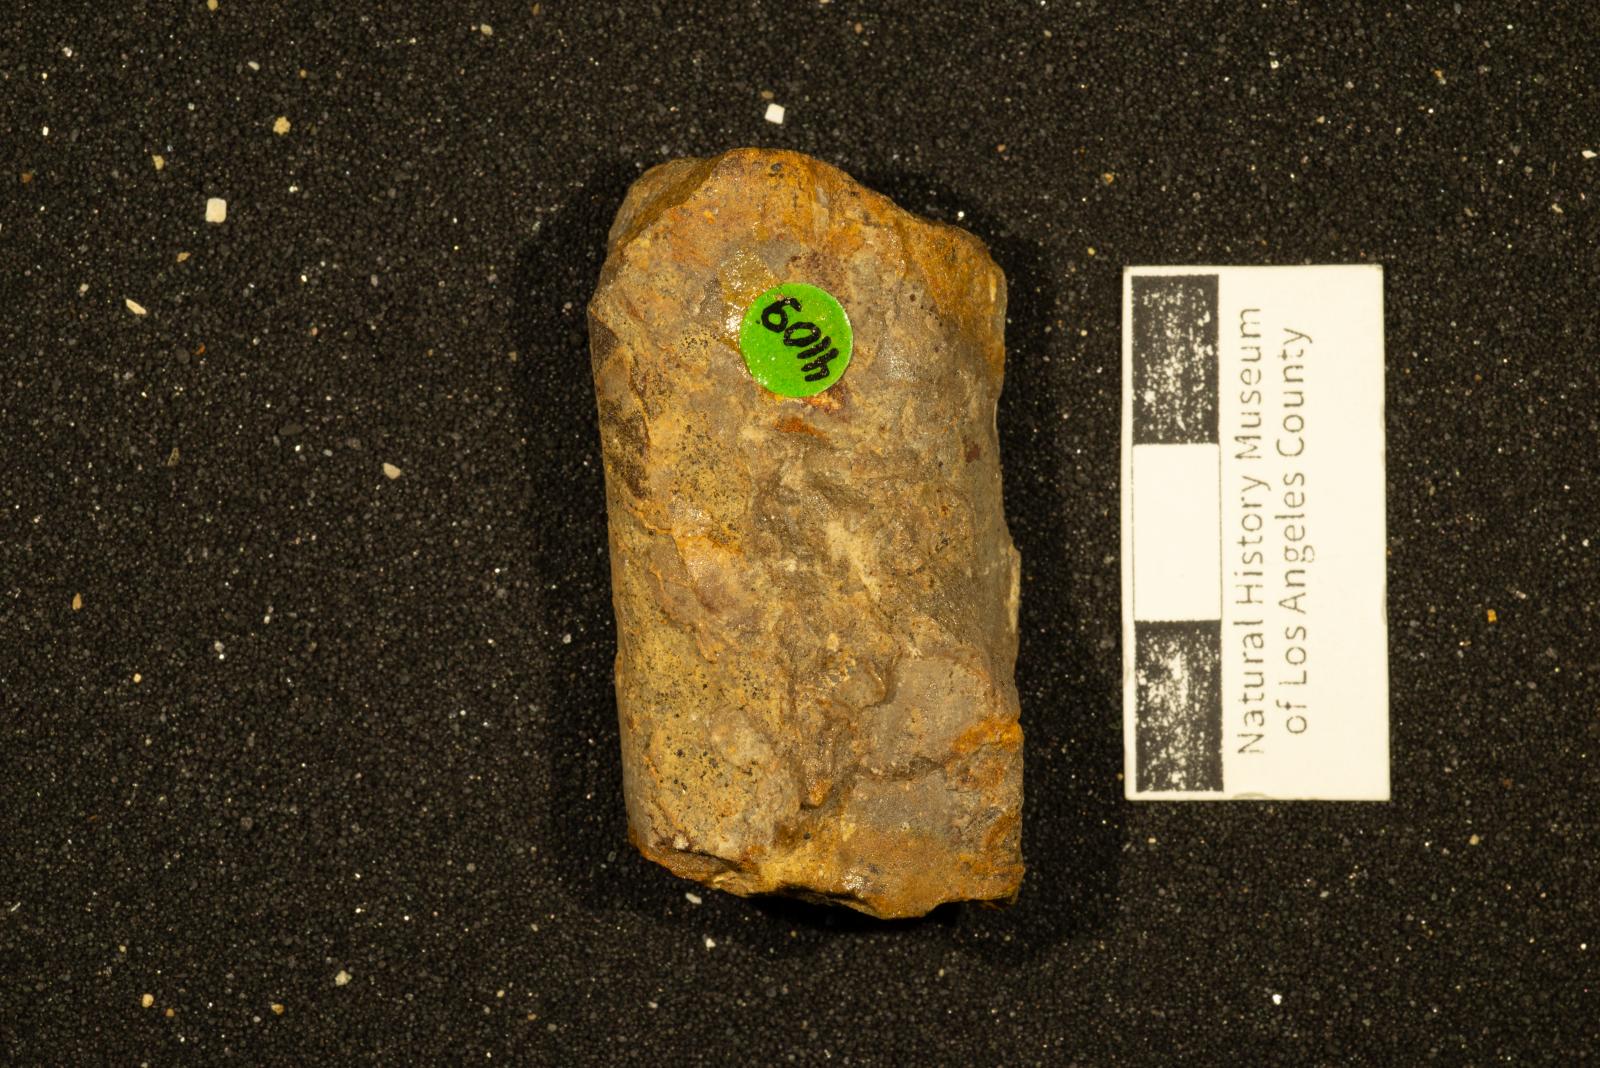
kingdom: Animalia
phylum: Mollusca
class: Cephalopoda
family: Baculitidae
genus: Baculites
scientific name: Baculites rex
